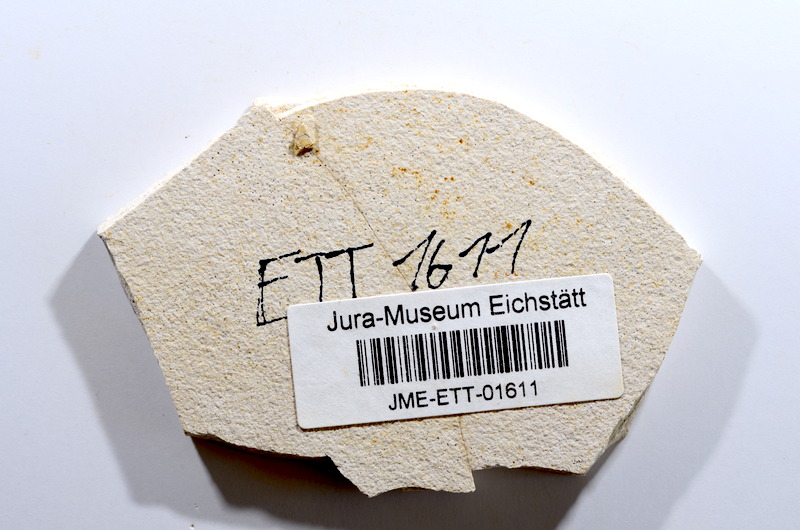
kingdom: Animalia
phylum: Chordata
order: Salmoniformes
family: Orthogonikleithridae
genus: Orthogonikleithrus
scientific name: Orthogonikleithrus hoelli
